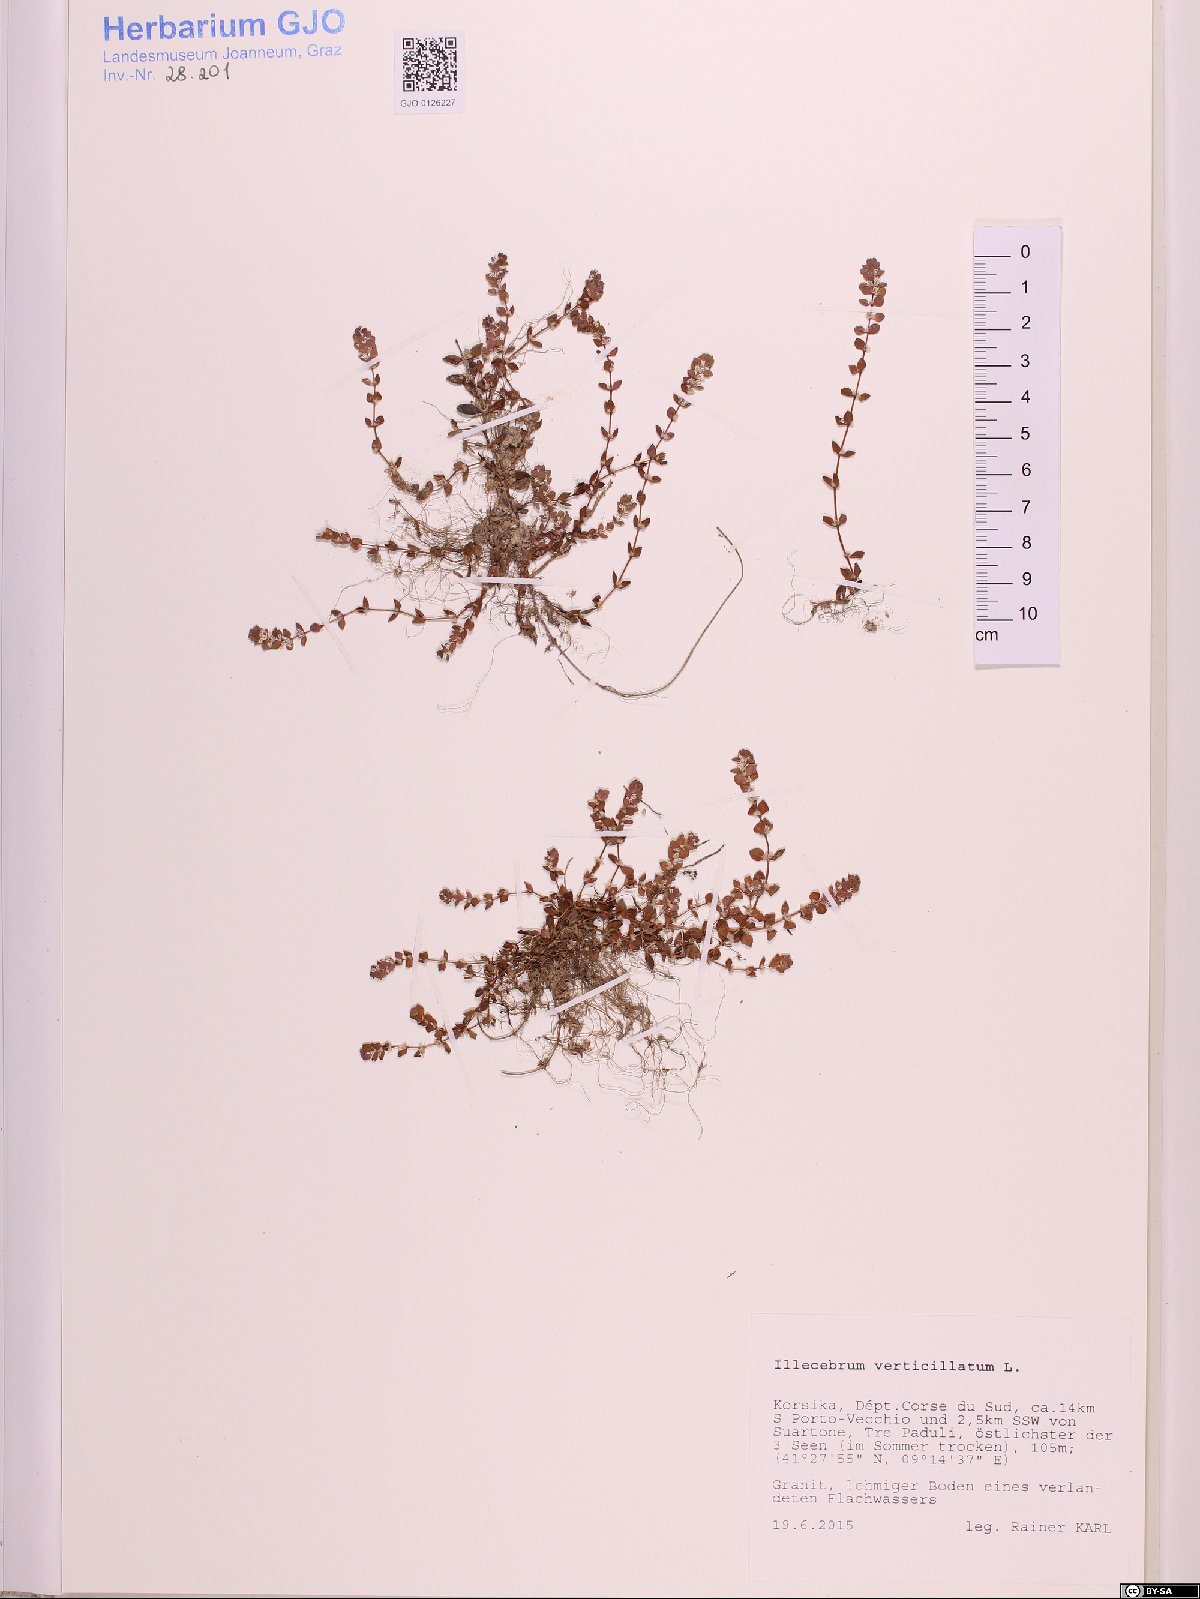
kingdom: Plantae
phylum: Tracheophyta
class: Magnoliopsida
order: Caryophyllales
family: Caryophyllaceae
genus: Illecebrum
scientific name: Illecebrum verticillatum
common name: Coral necklace
